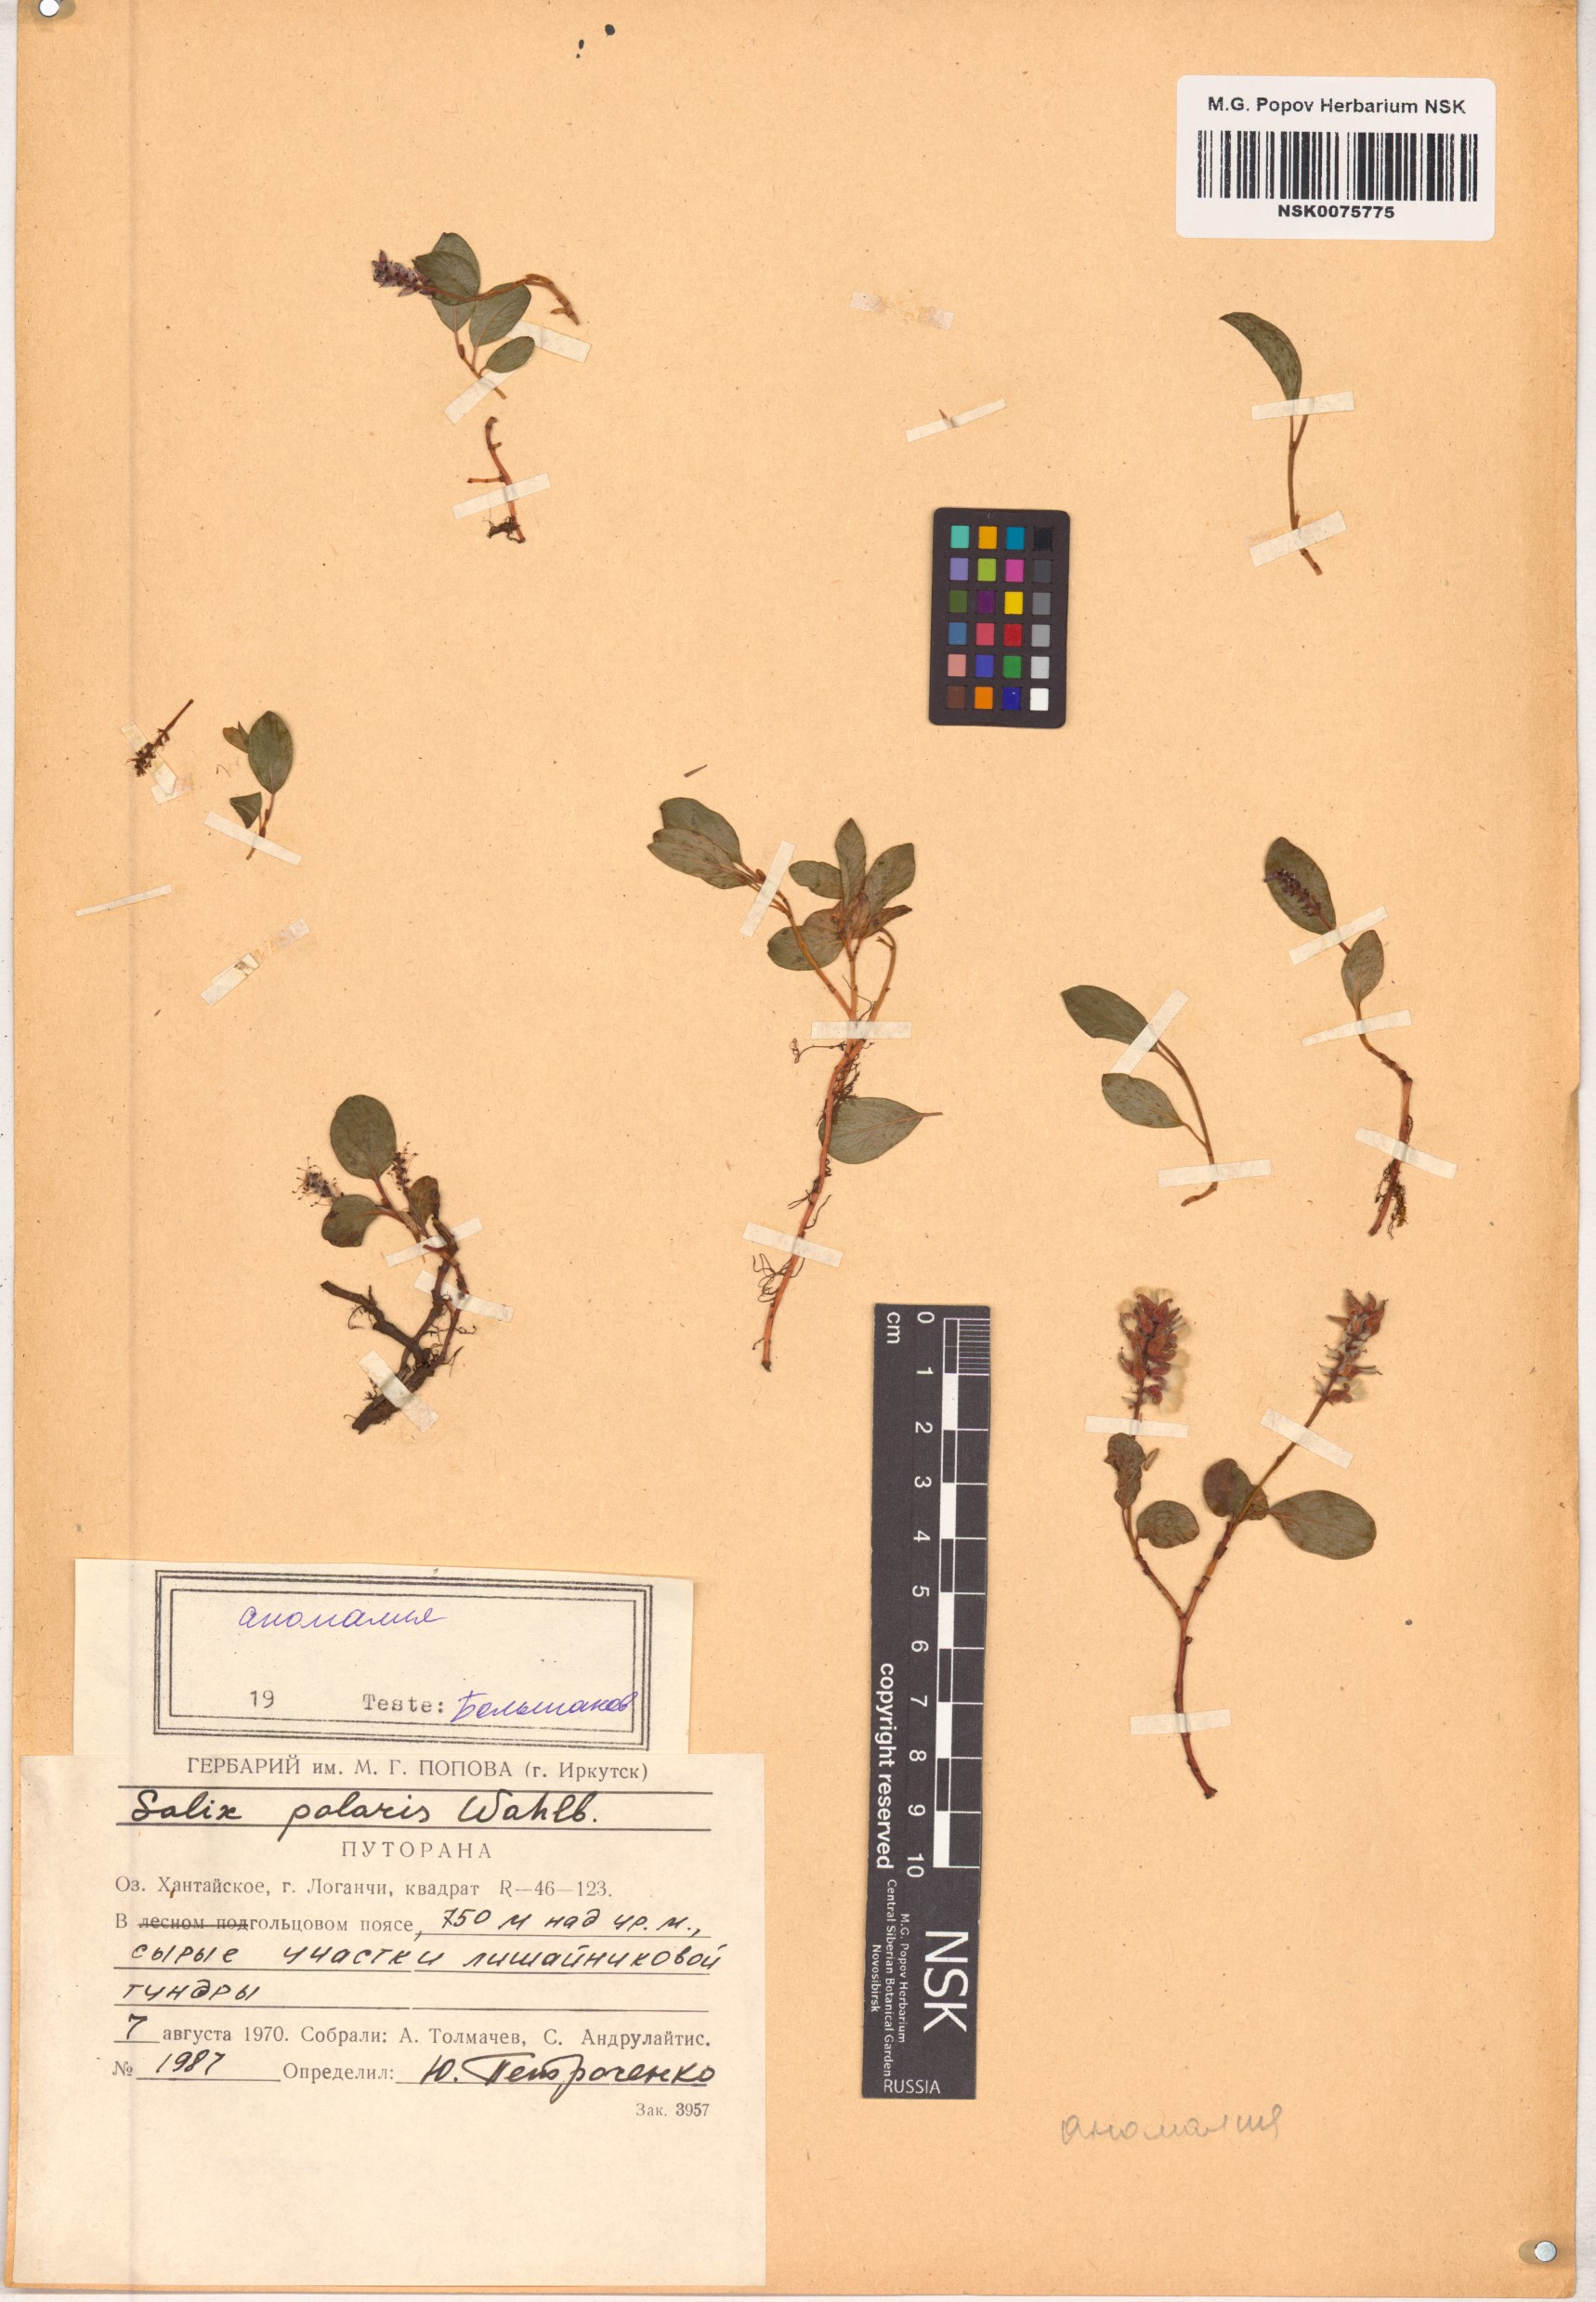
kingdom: Plantae
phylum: Tracheophyta
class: Magnoliopsida
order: Malpighiales
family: Salicaceae
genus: Salix
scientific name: Salix polaris
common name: Polar willow
